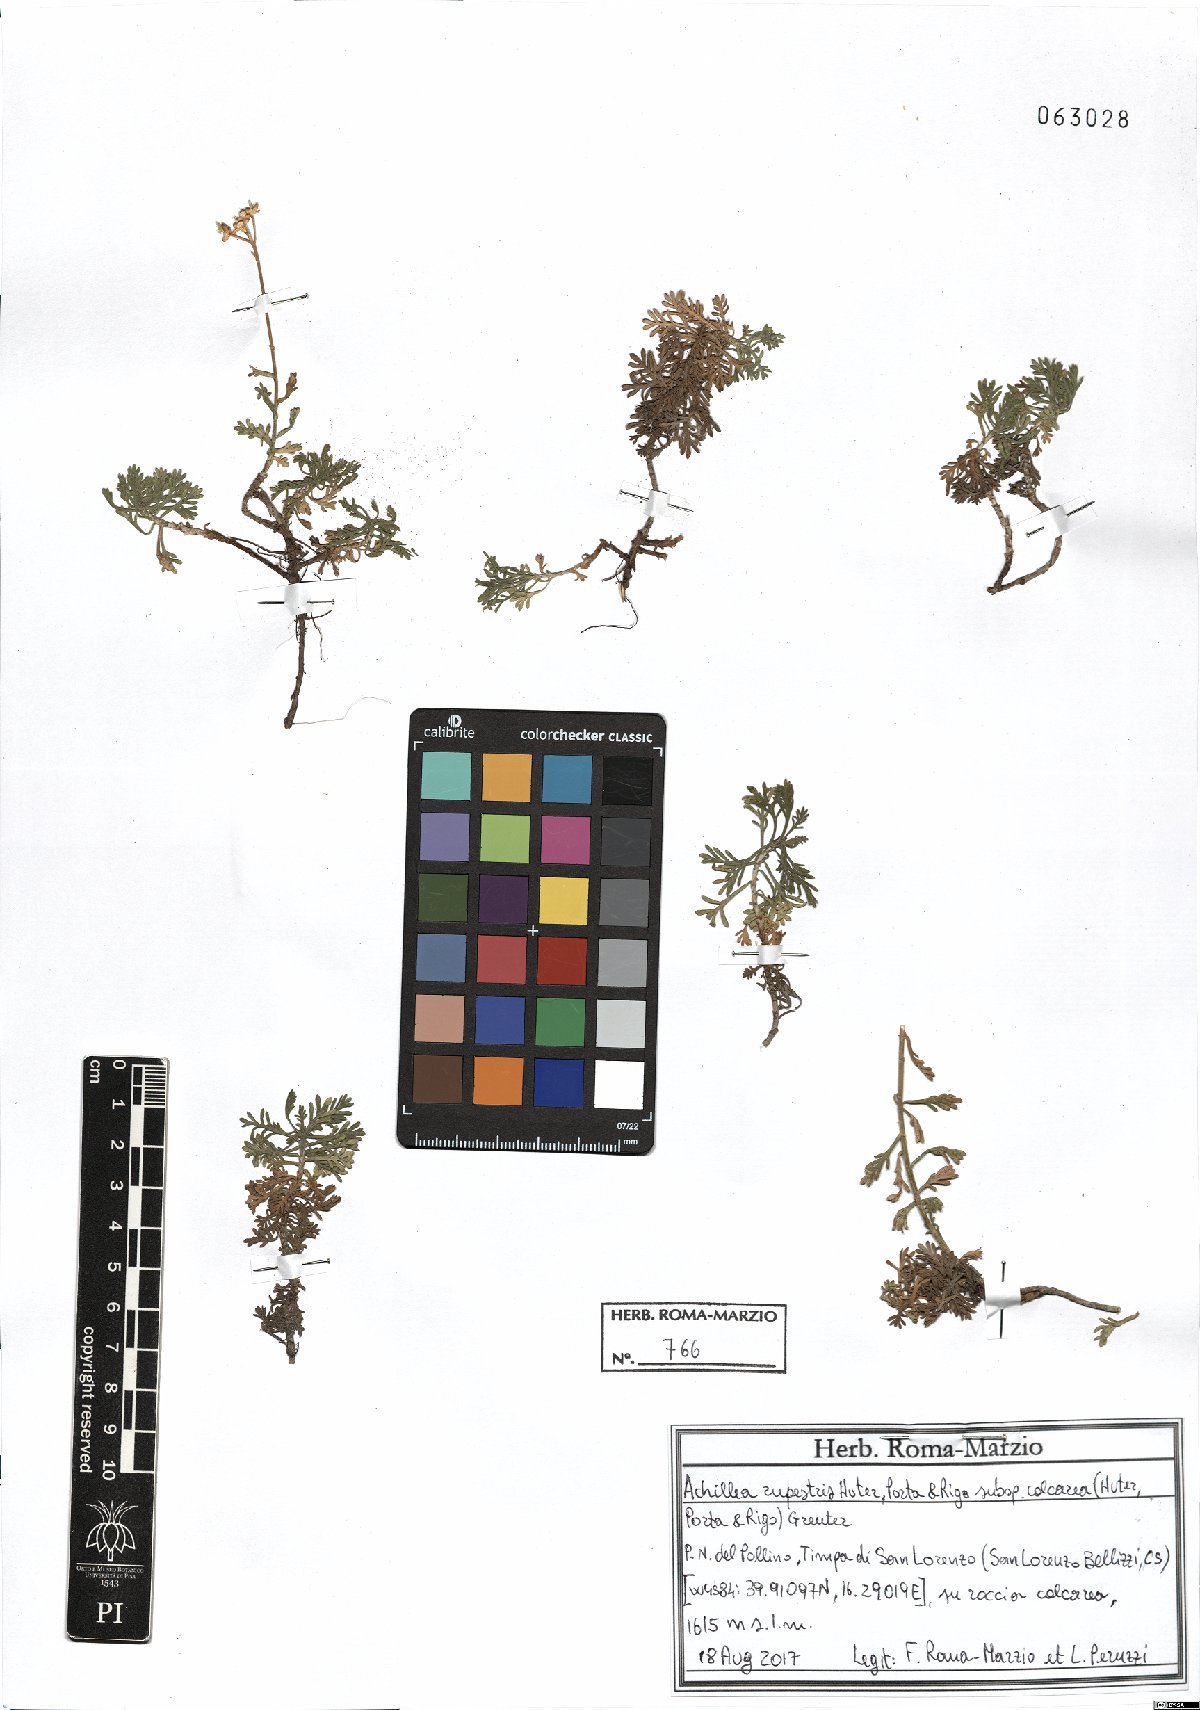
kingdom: Plantae
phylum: Tracheophyta
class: Magnoliopsida
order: Asterales
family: Asteraceae
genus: Achillea
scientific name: Achillea rupestris
